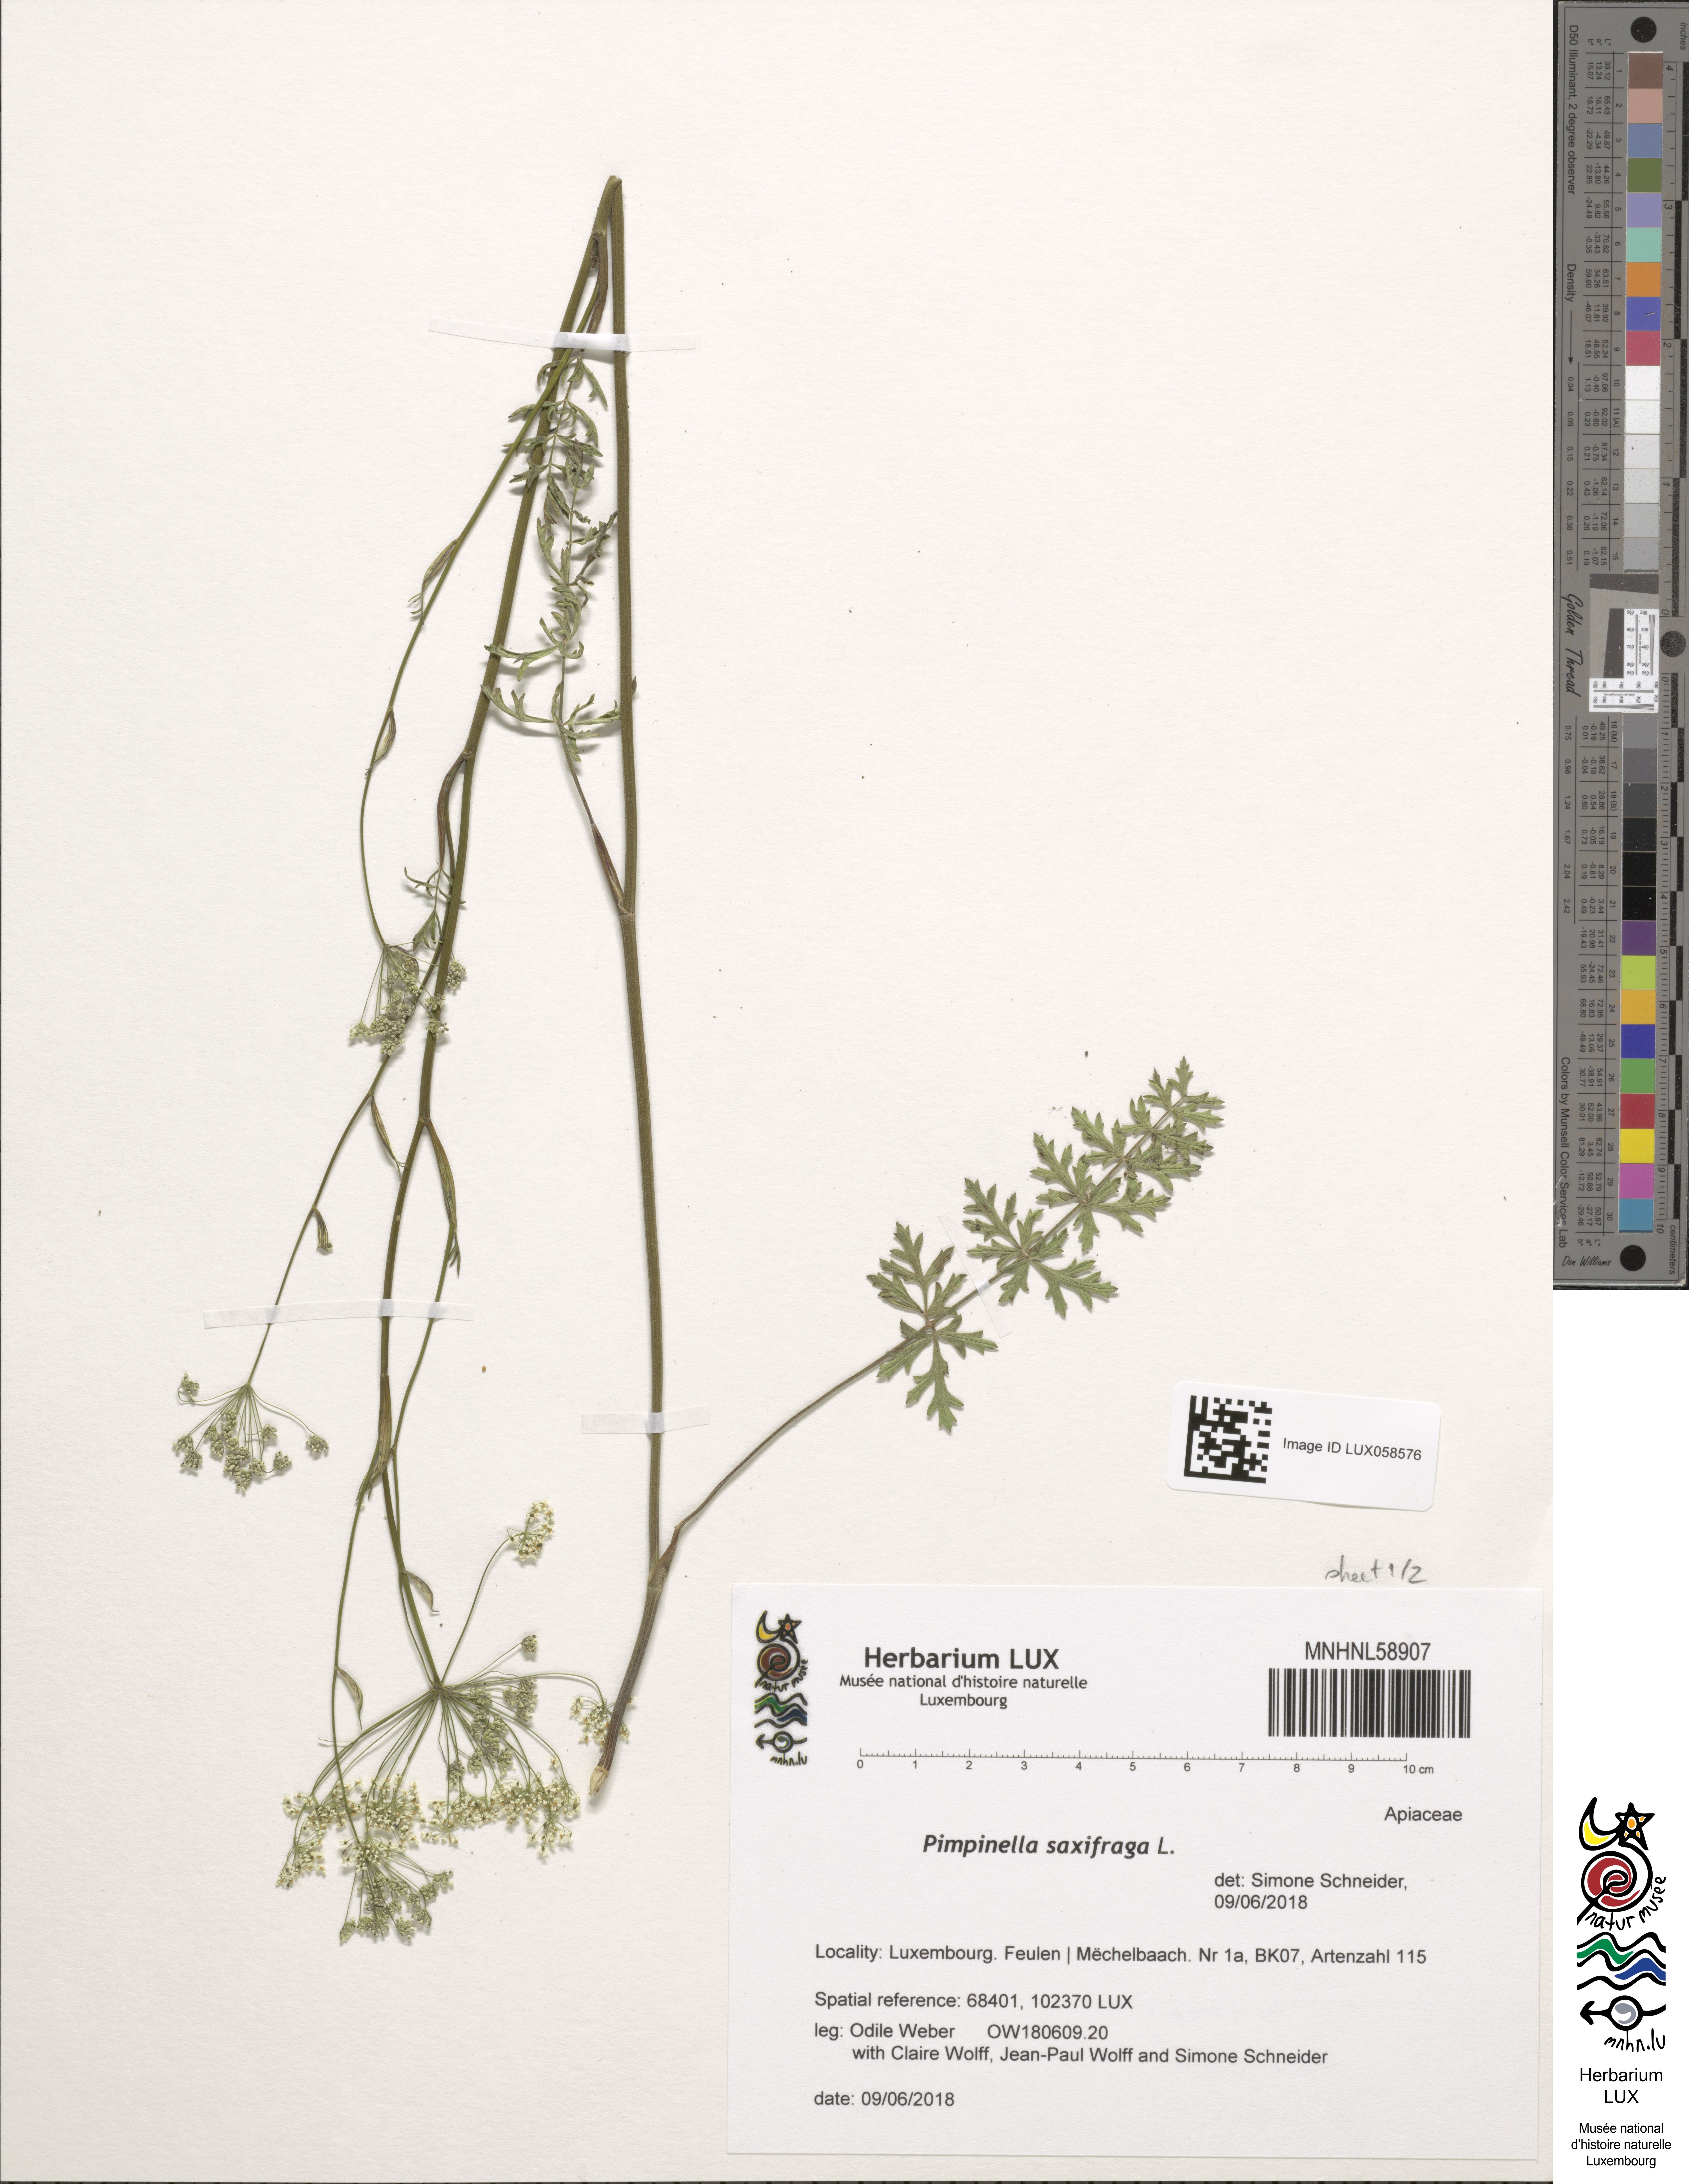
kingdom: Plantae
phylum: Tracheophyta
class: Magnoliopsida
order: Apiales
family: Apiaceae
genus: Pimpinella
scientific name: Pimpinella saxifraga
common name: Burnet-saxifrage
